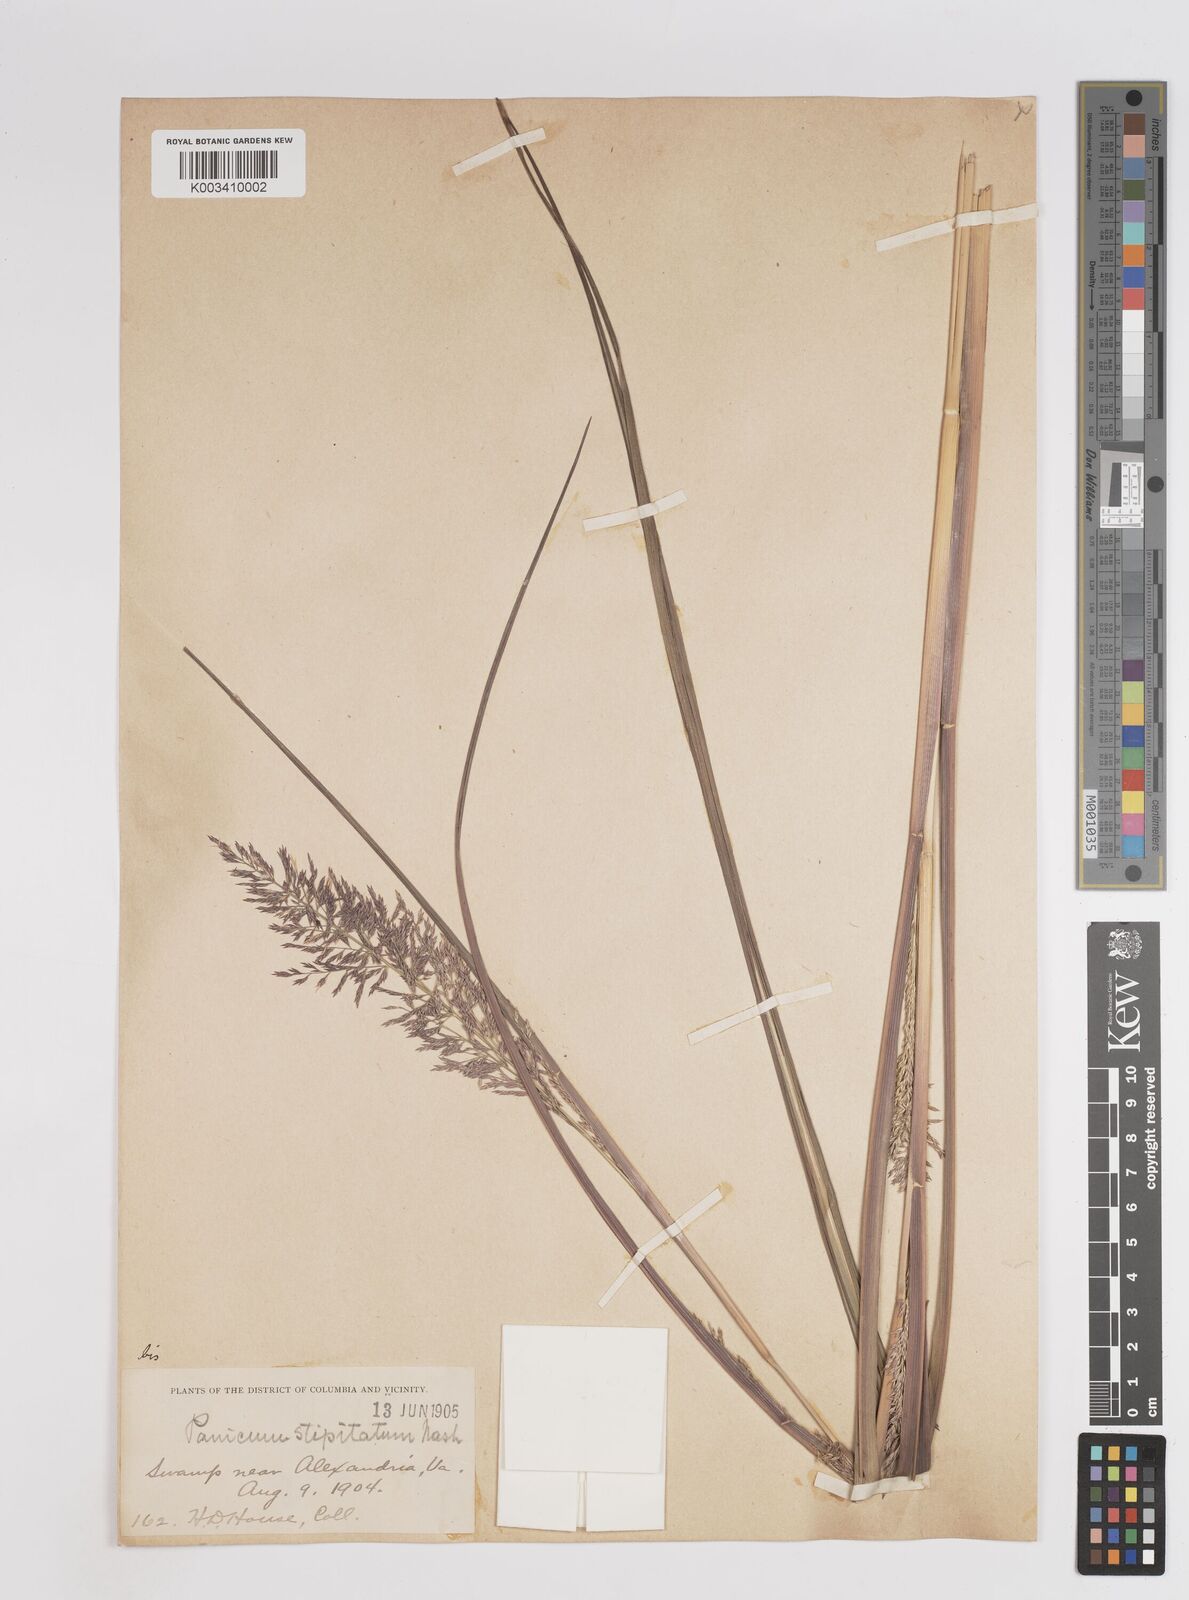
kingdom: Plantae
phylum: Tracheophyta
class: Liliopsida
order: Poales
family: Poaceae
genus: Coleataenia
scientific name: Coleataenia pulchra
